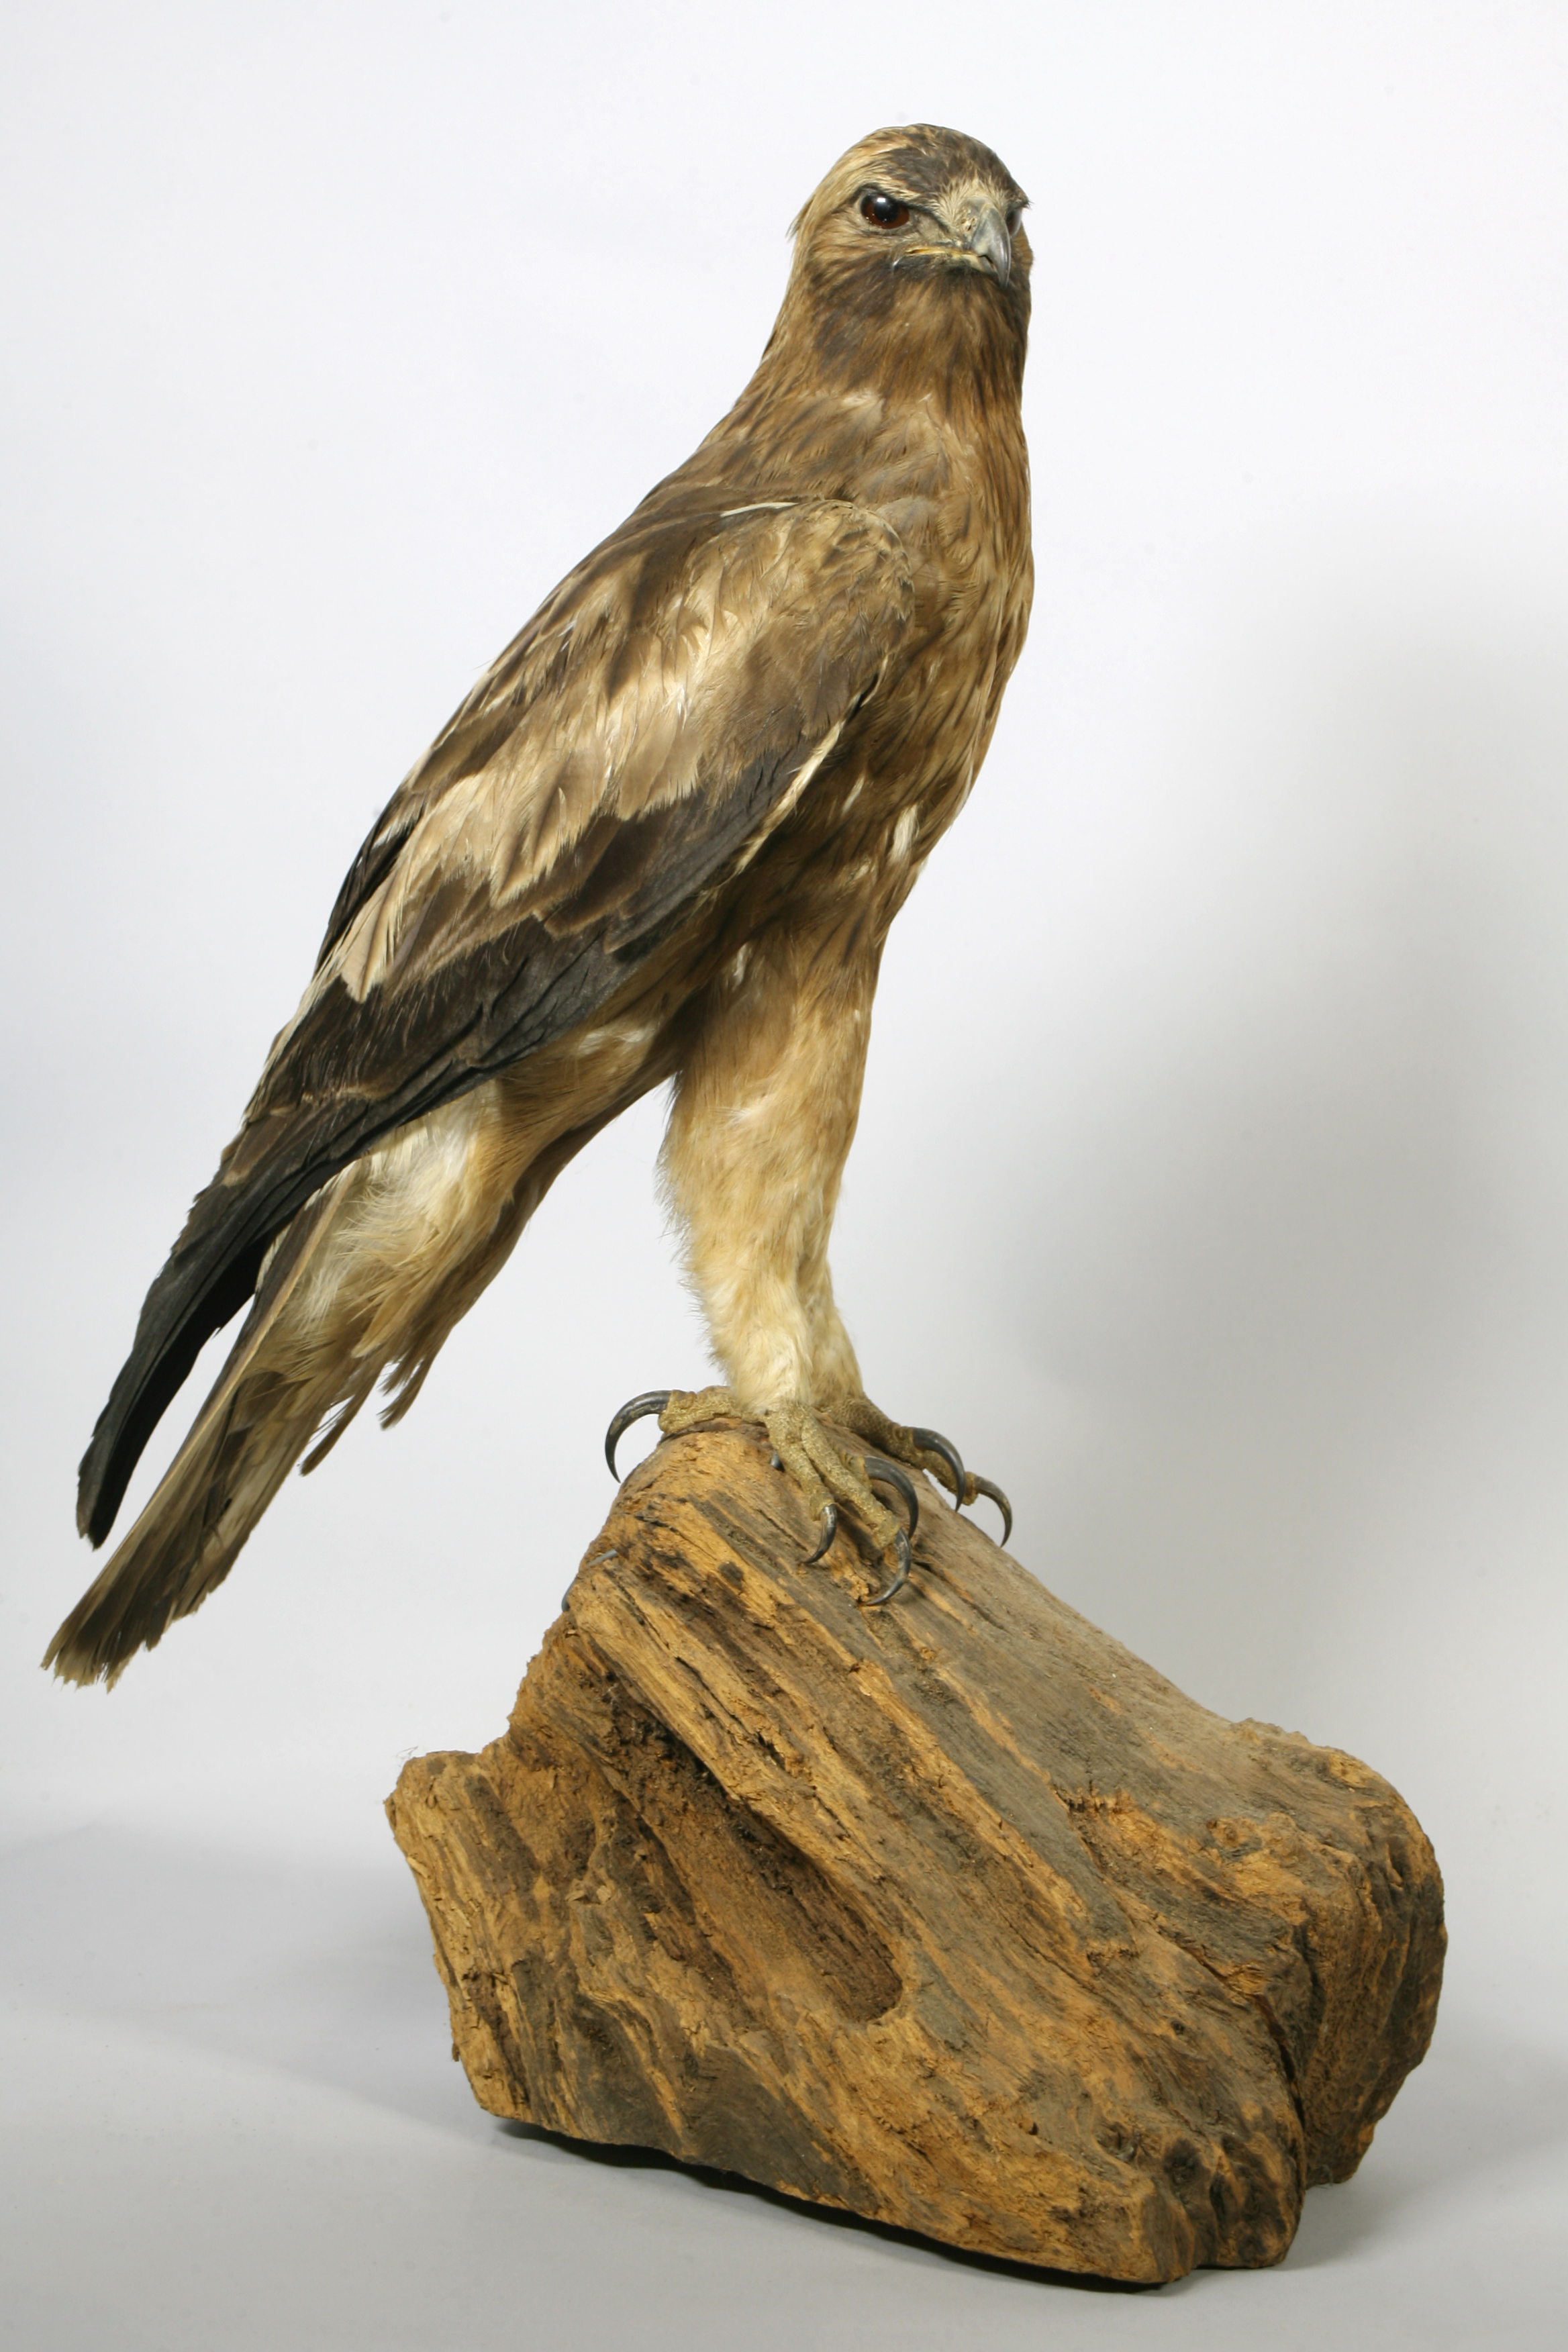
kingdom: Animalia
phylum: Chordata
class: Aves
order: Accipitriformes
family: Accipitridae
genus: Hieraaetus
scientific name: Hieraaetus pennatus
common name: Booted eagle
